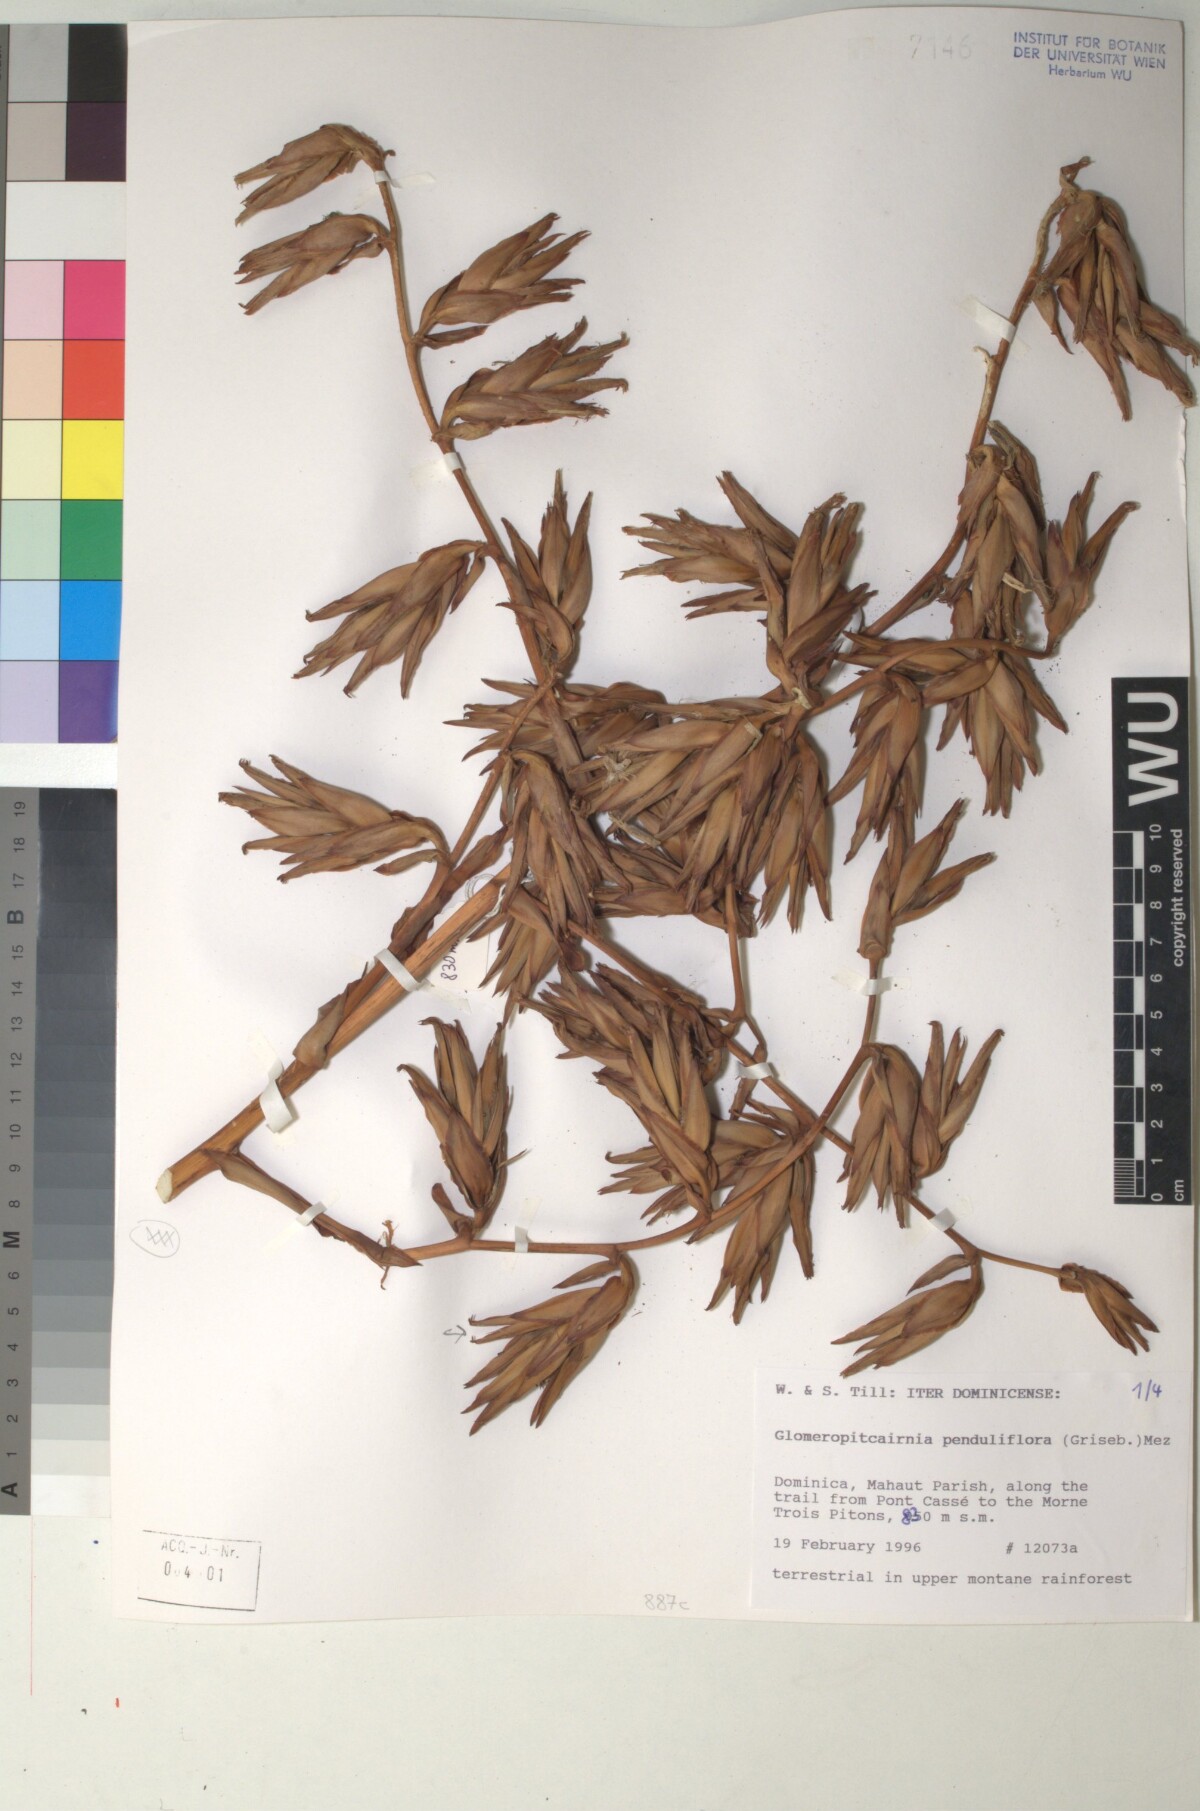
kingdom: Plantae
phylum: Tracheophyta
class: Liliopsida
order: Poales
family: Bromeliaceae
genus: Glomeropitcairnia
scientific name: Glomeropitcairnia penduliflora
